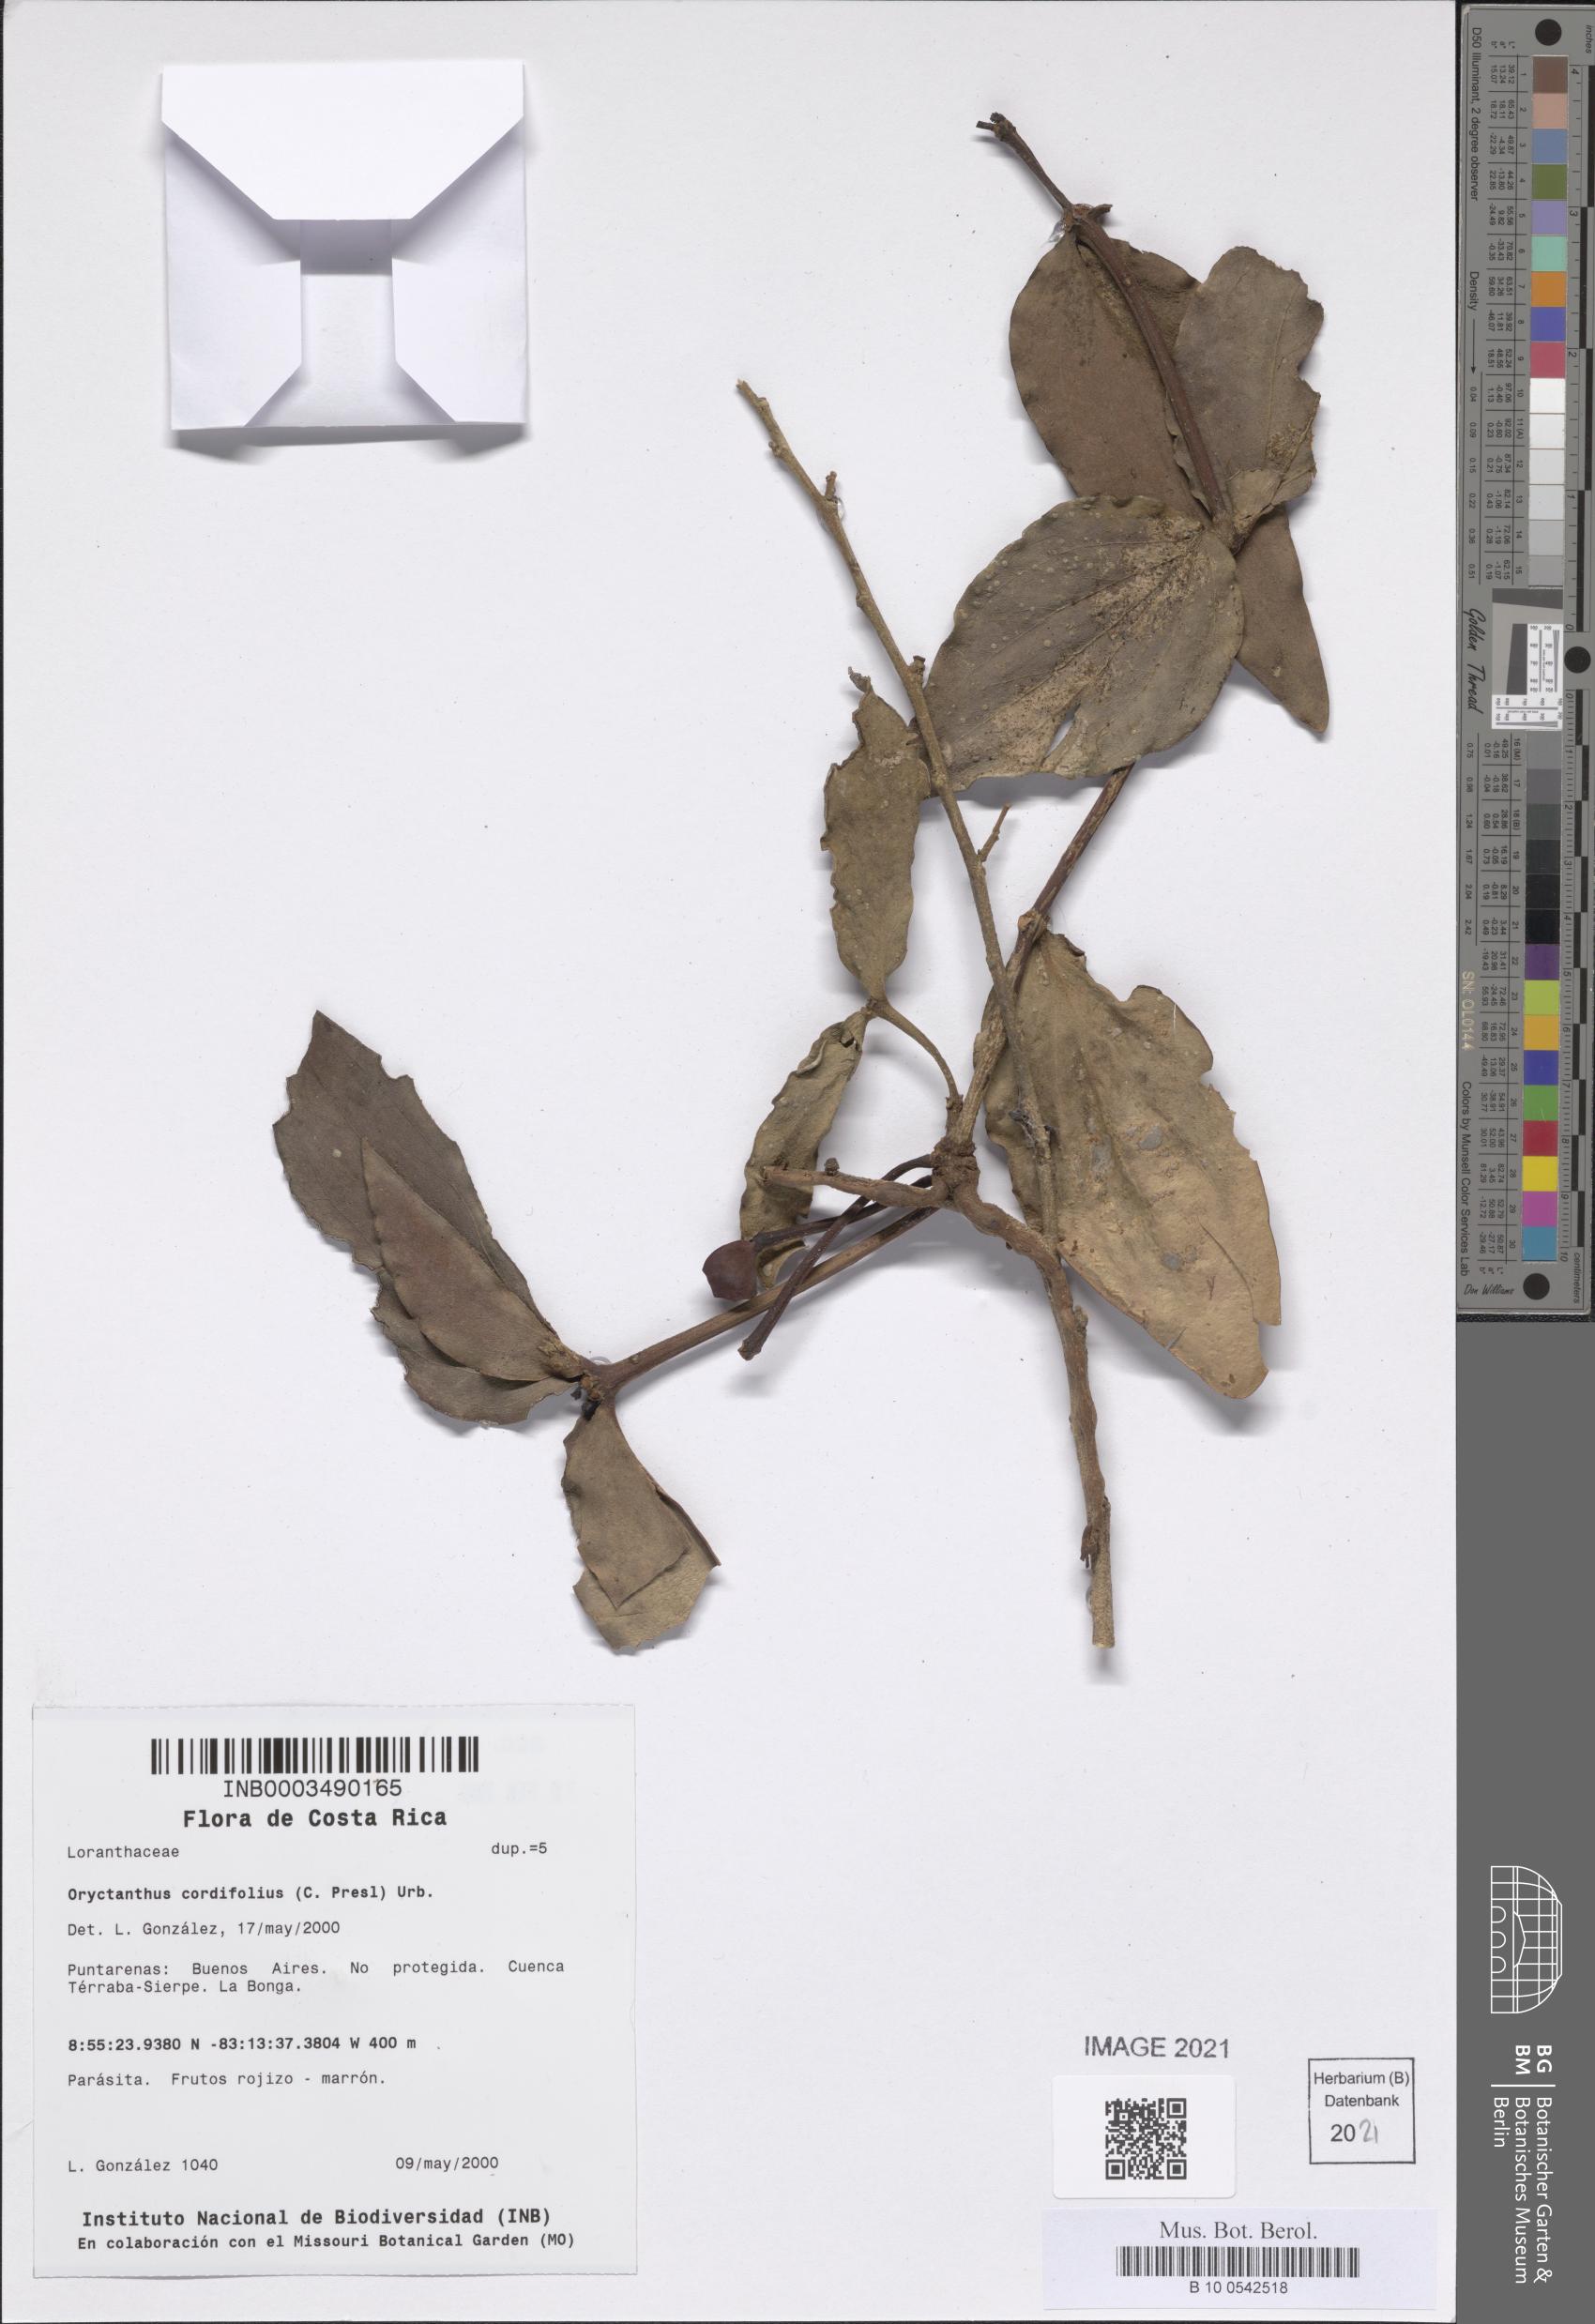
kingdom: Plantae
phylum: Tracheophyta
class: Magnoliopsida
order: Santalales
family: Loranthaceae
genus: Oryctanthus
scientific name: Oryctanthus cordifolius
